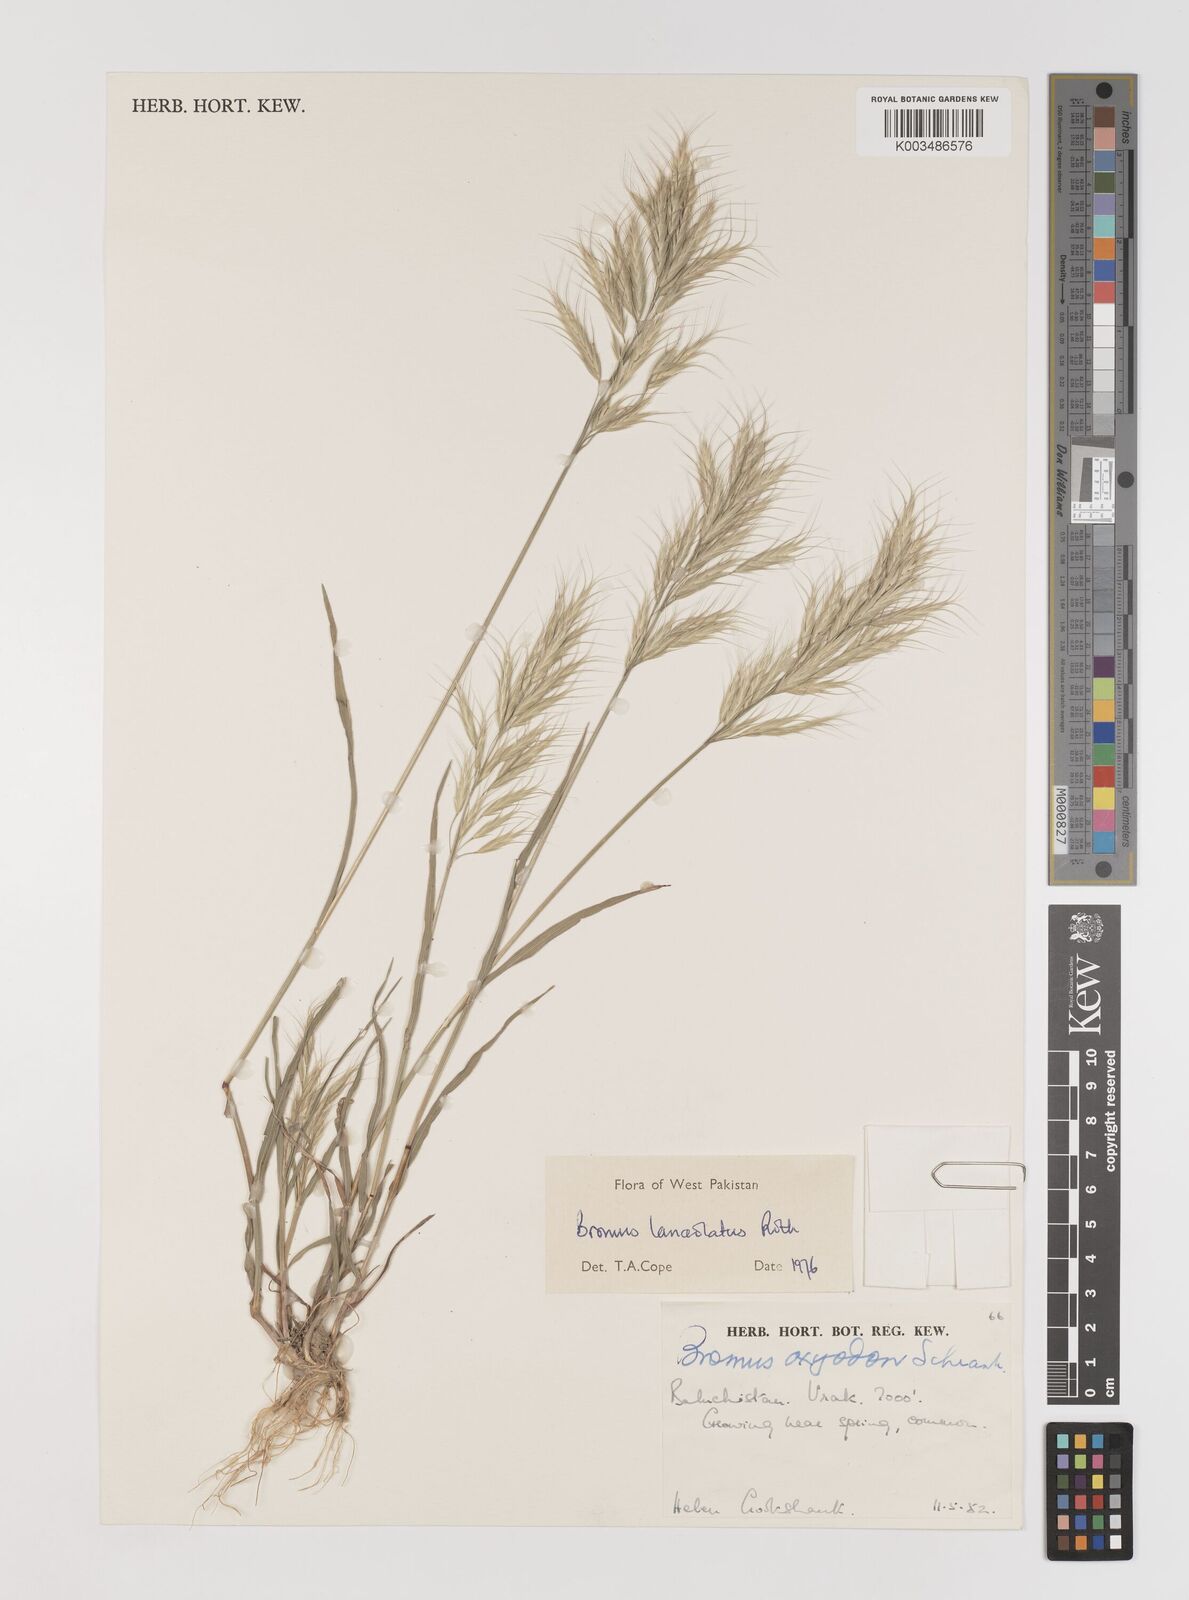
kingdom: Plantae
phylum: Tracheophyta
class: Liliopsida
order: Poales
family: Poaceae
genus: Bromus
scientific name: Bromus lanceolatus
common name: Mediterranean brome
